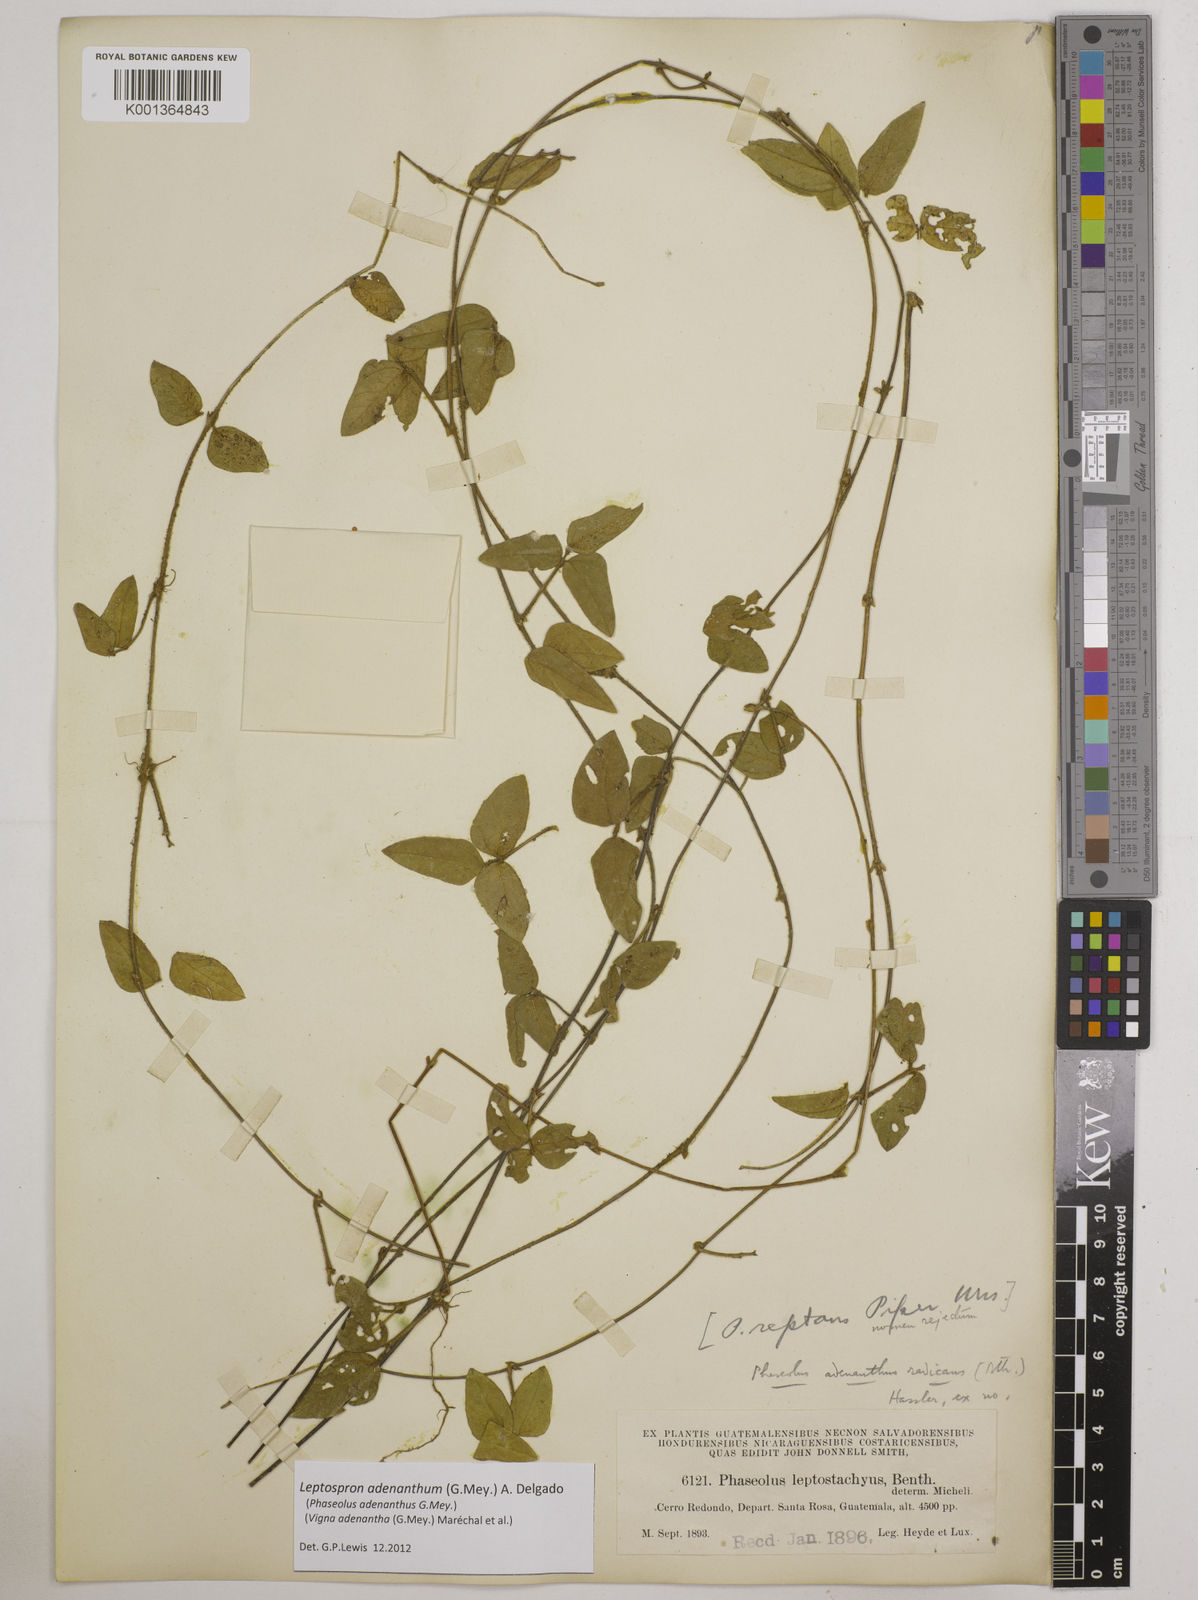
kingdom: Plantae
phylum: Tracheophyta
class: Magnoliopsida
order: Fabales
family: Fabaceae
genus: Leptospron
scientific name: Leptospron adenanthum
